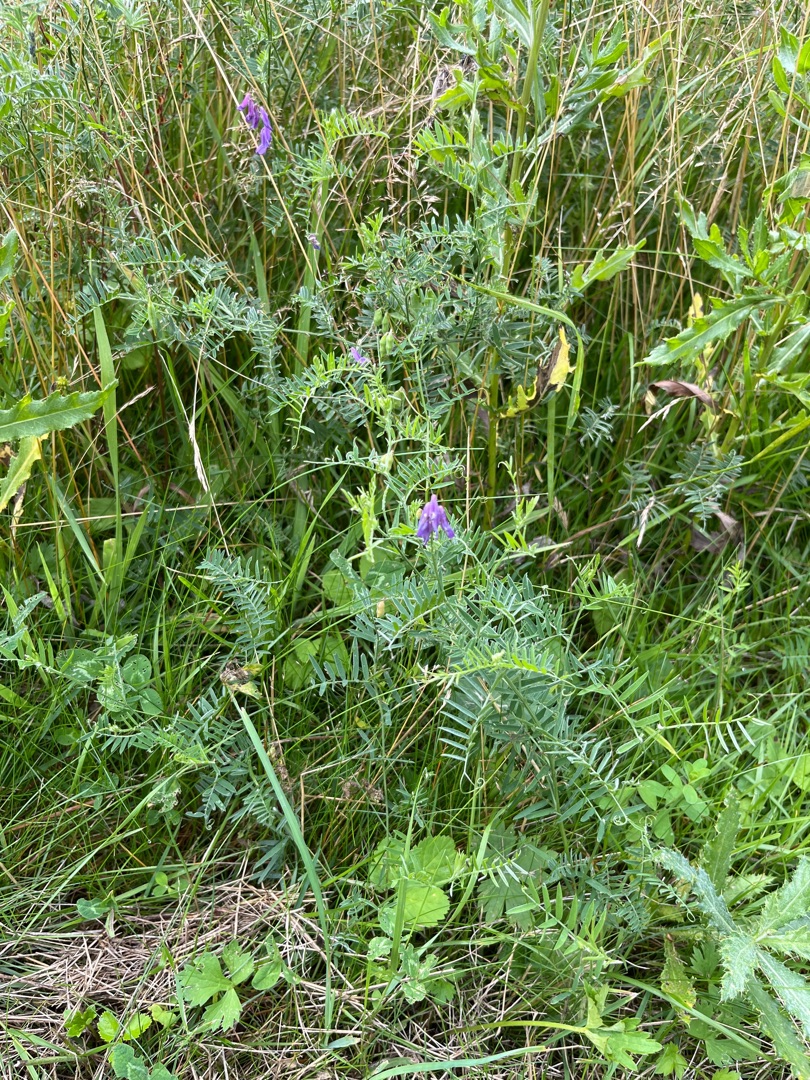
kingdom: Plantae
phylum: Tracheophyta
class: Magnoliopsida
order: Fabales
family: Fabaceae
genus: Vicia
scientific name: Vicia cracca
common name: Muse-vikke
